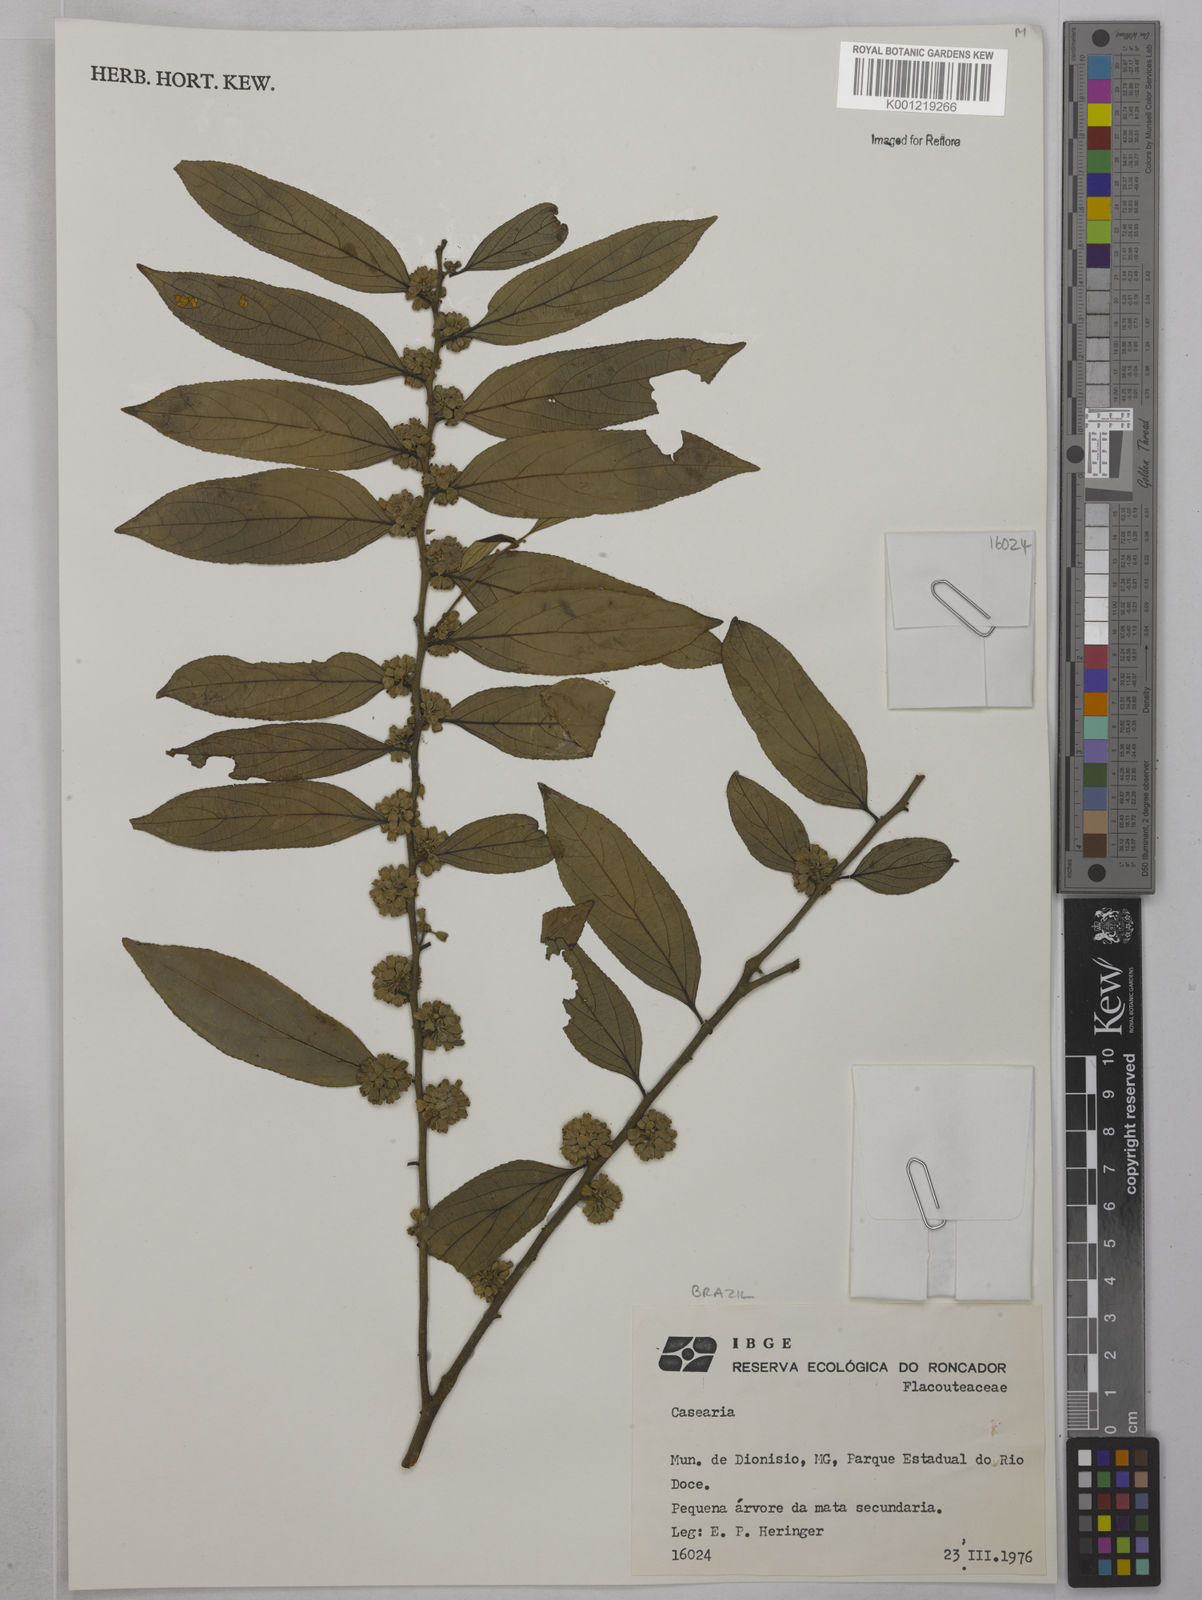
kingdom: Plantae
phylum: Tracheophyta
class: Magnoliopsida
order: Malpighiales
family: Salicaceae
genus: Casearia
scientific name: Casearia
